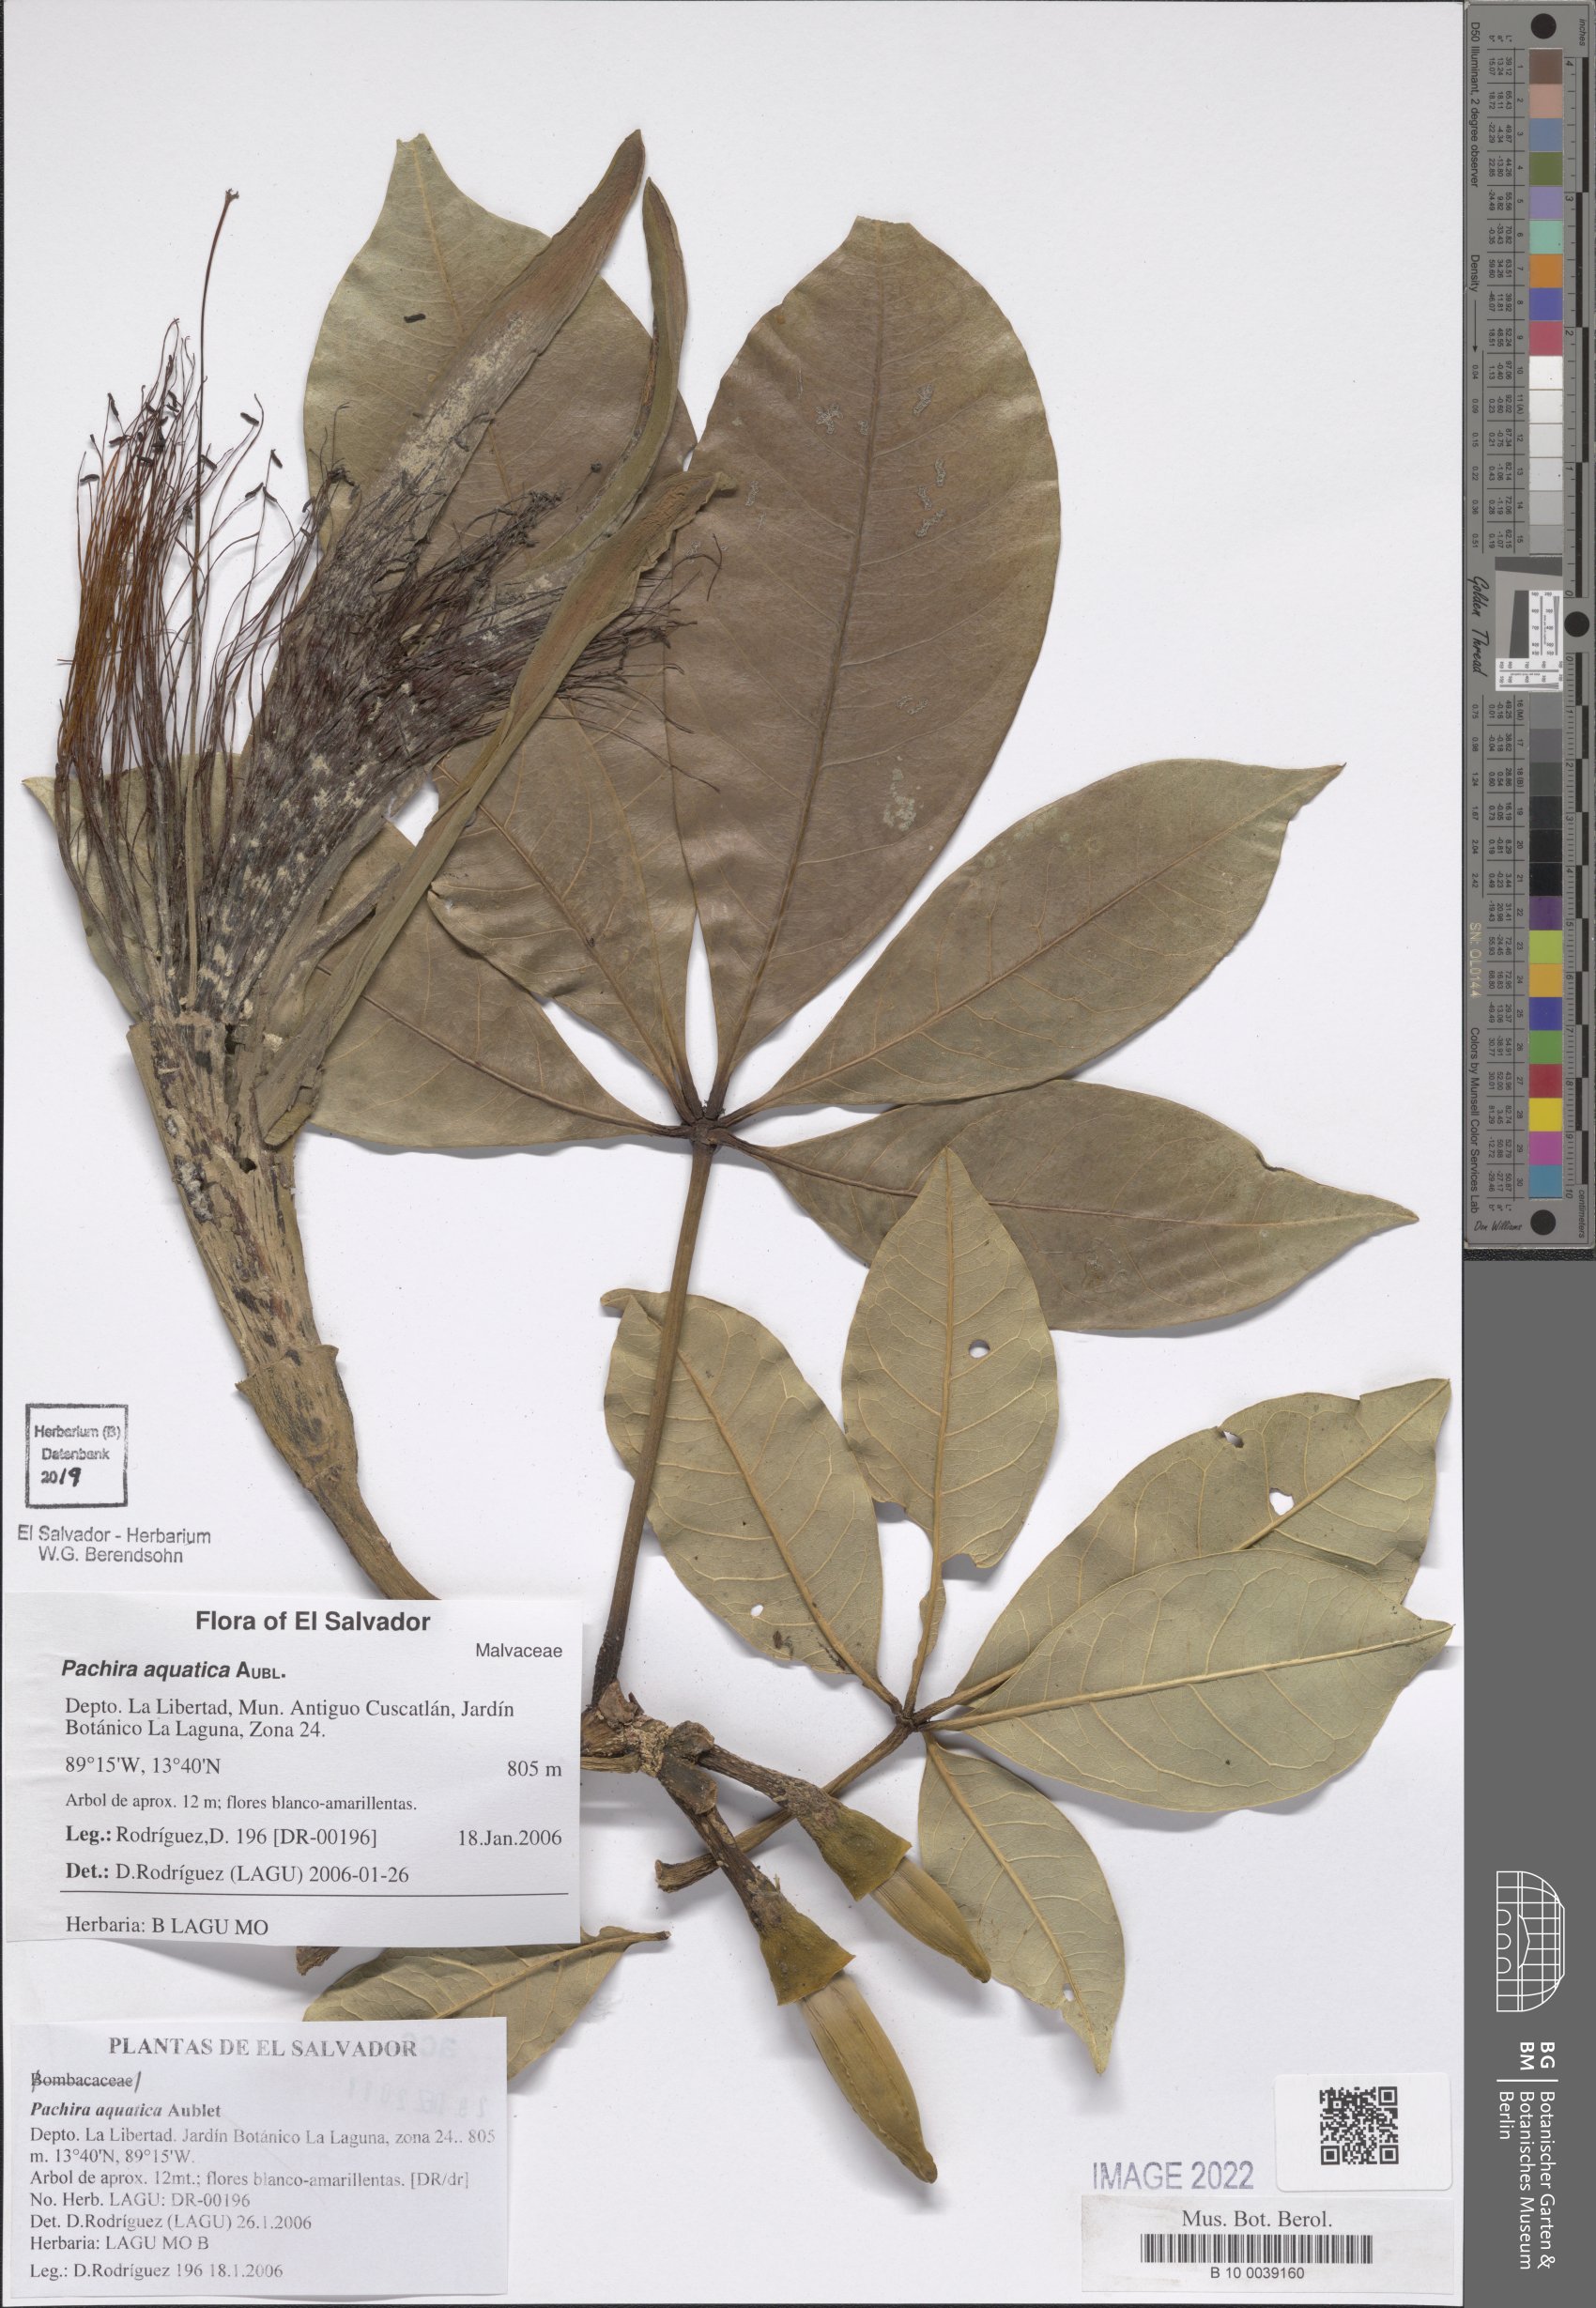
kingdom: Plantae
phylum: Tracheophyta
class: Magnoliopsida
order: Malvales
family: Malvaceae
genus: Pachira
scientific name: Pachira aquatica
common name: Provision-tree
